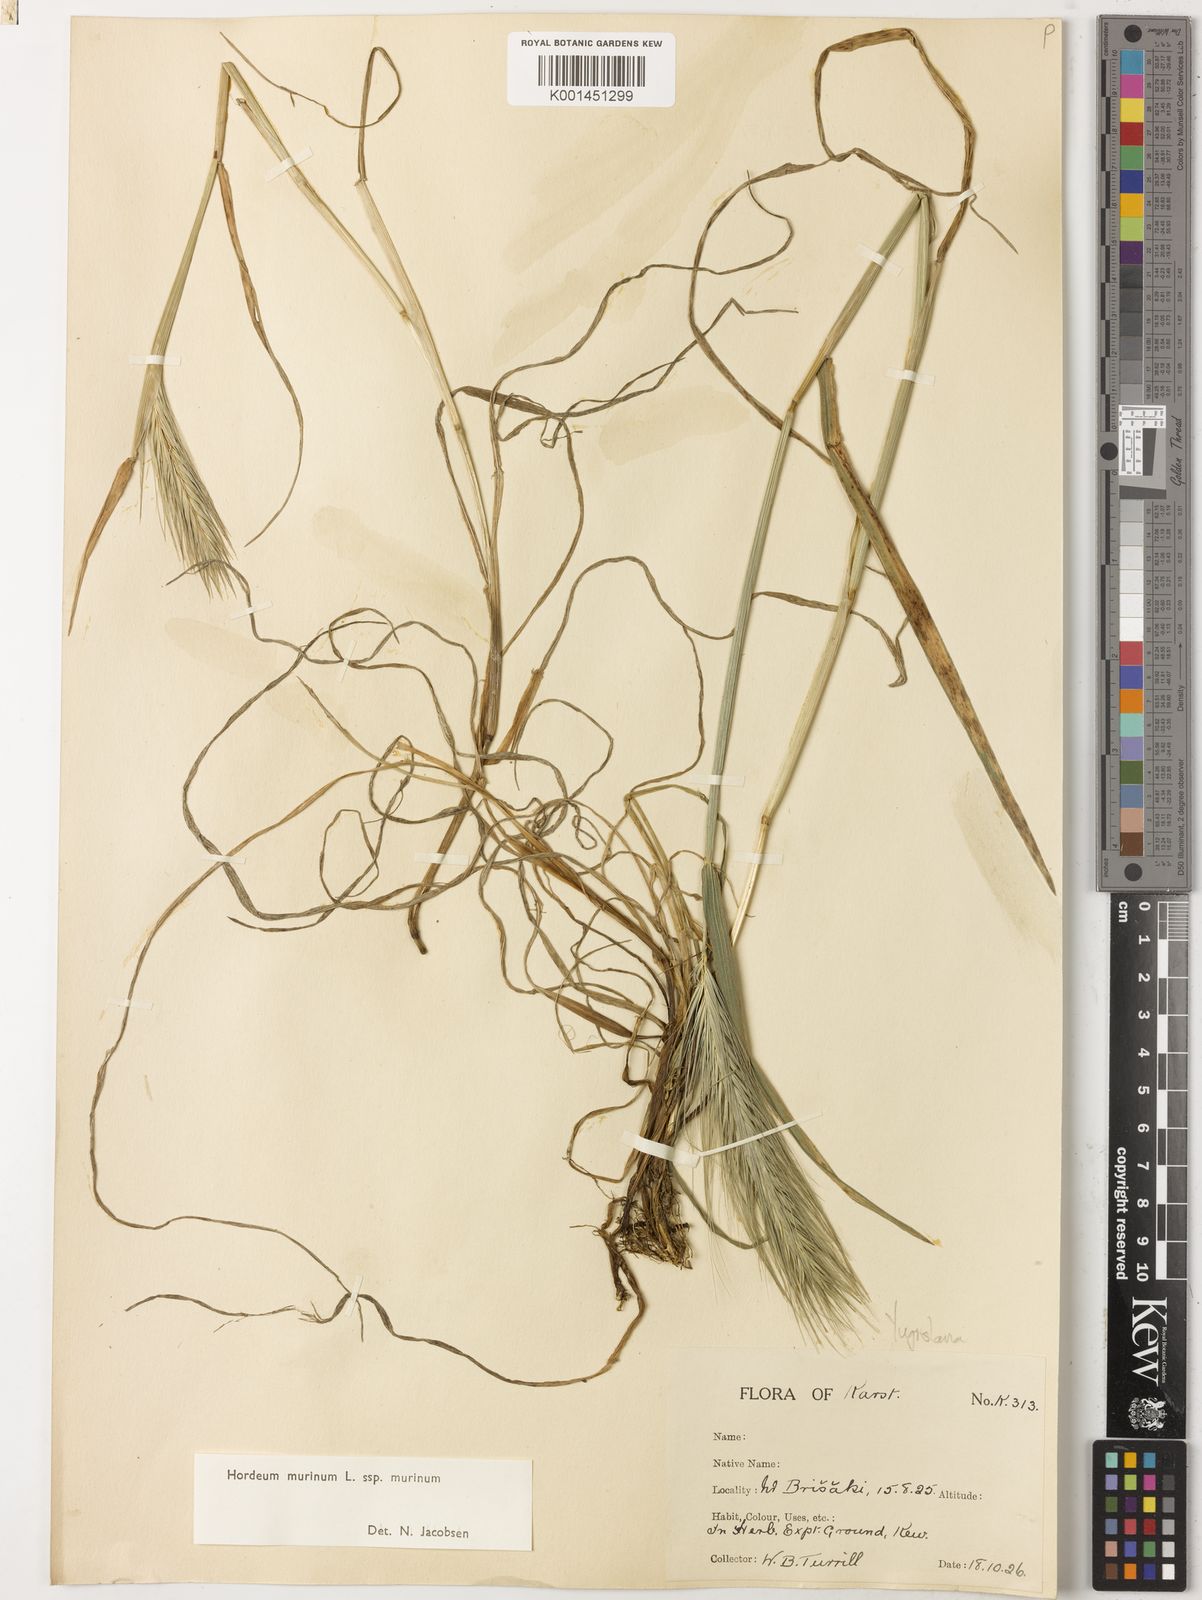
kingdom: Plantae
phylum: Tracheophyta
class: Liliopsida
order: Poales
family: Poaceae
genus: Hordeum
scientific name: Hordeum murinum
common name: Wall barley
